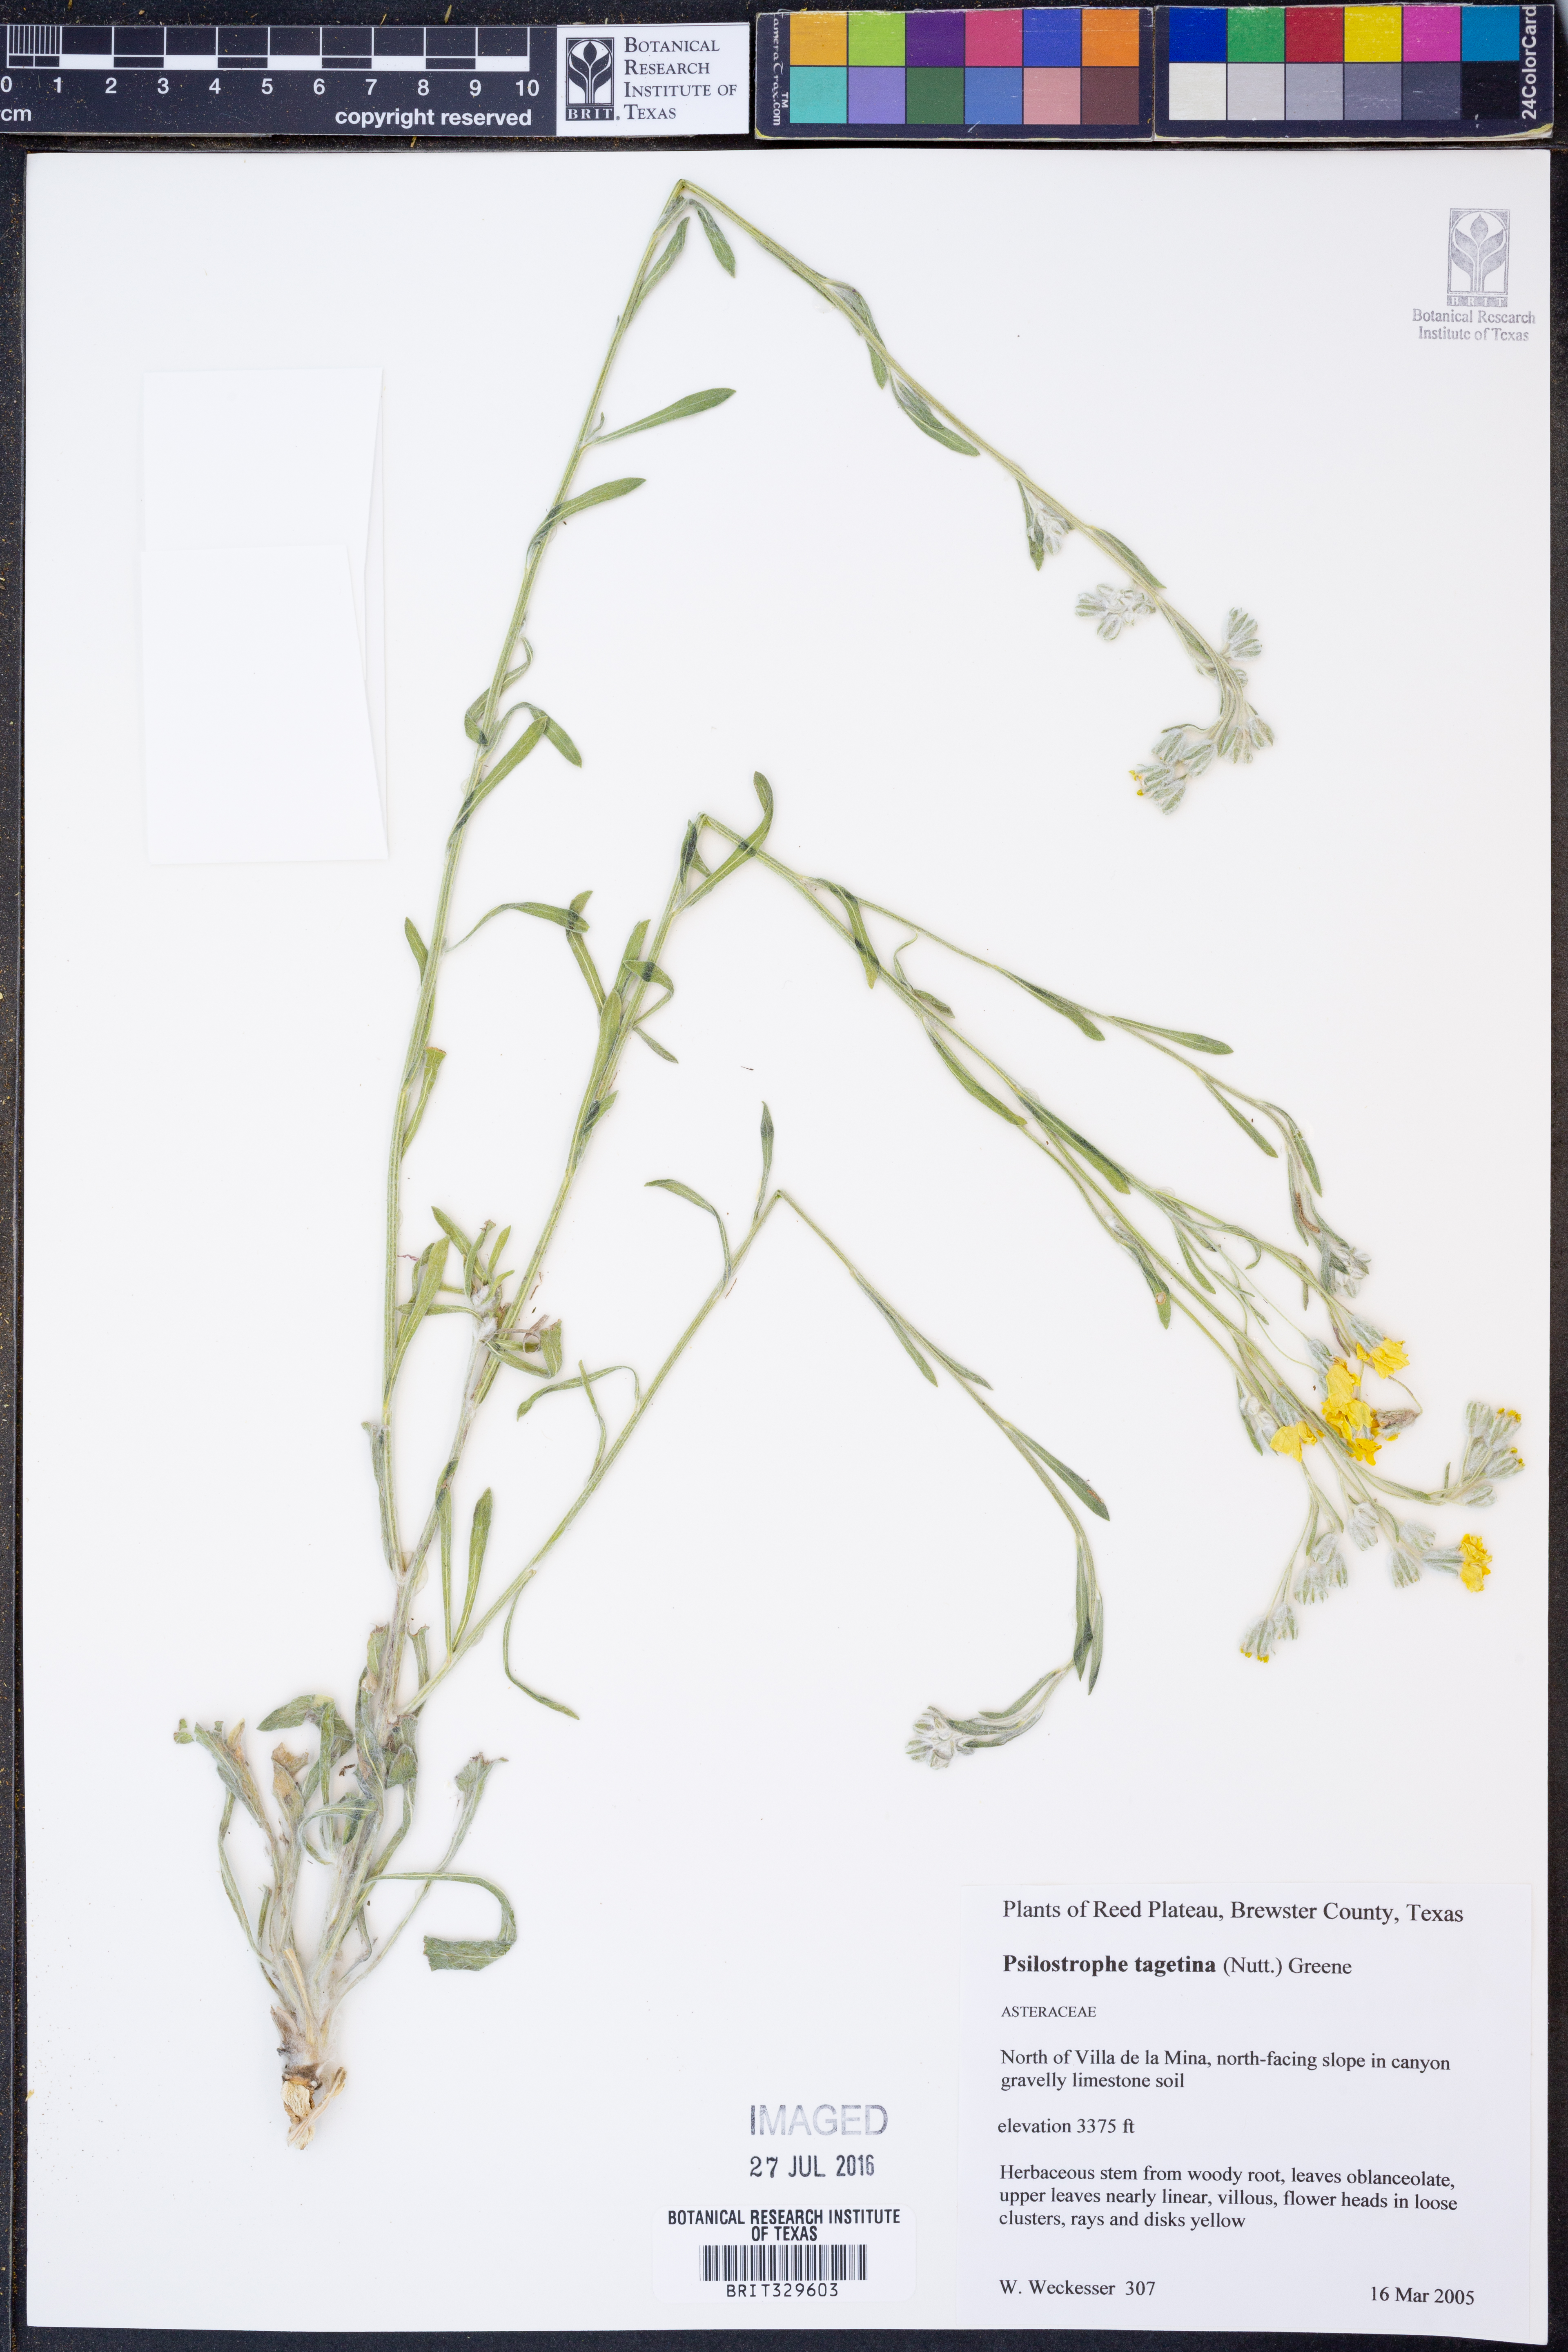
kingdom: Plantae
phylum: Tracheophyta
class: Magnoliopsida
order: Asterales
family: Asteraceae
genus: Psilostrophe
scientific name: Psilostrophe tagetina
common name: Marigold paper-flower
